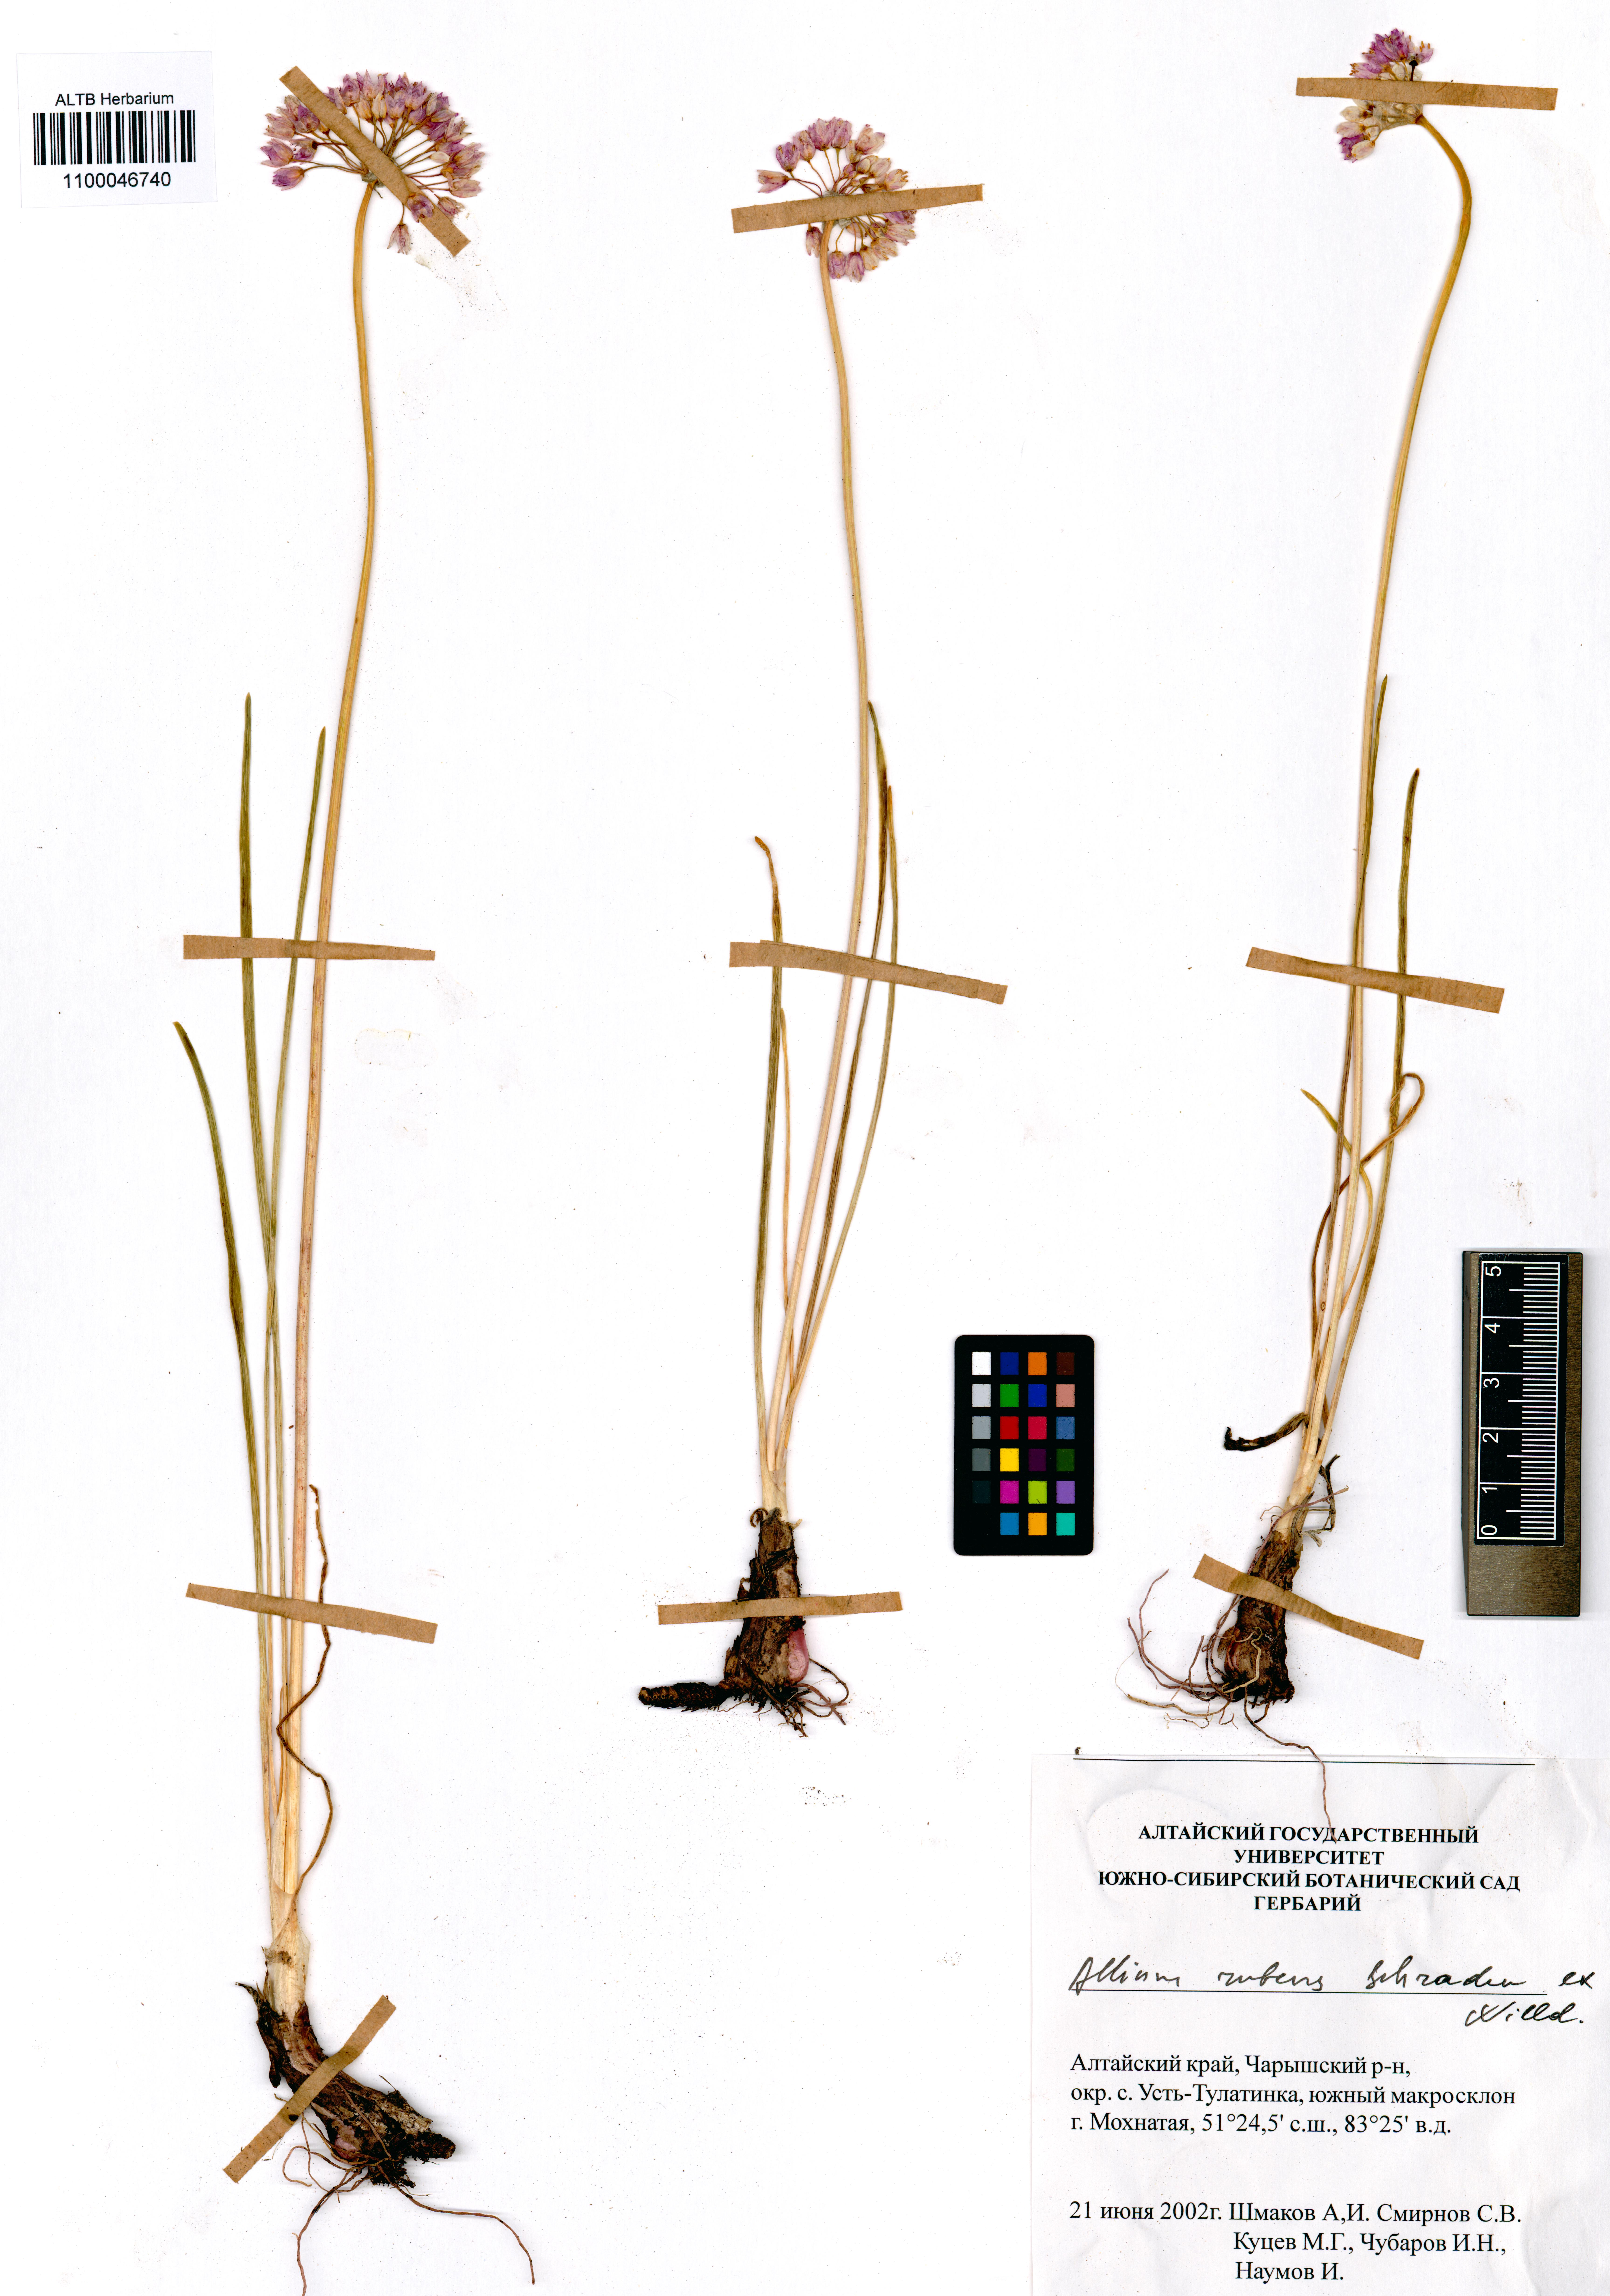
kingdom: Plantae
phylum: Tracheophyta
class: Liliopsida
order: Asparagales
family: Amaryllidaceae
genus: Allium
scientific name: Allium rubens
